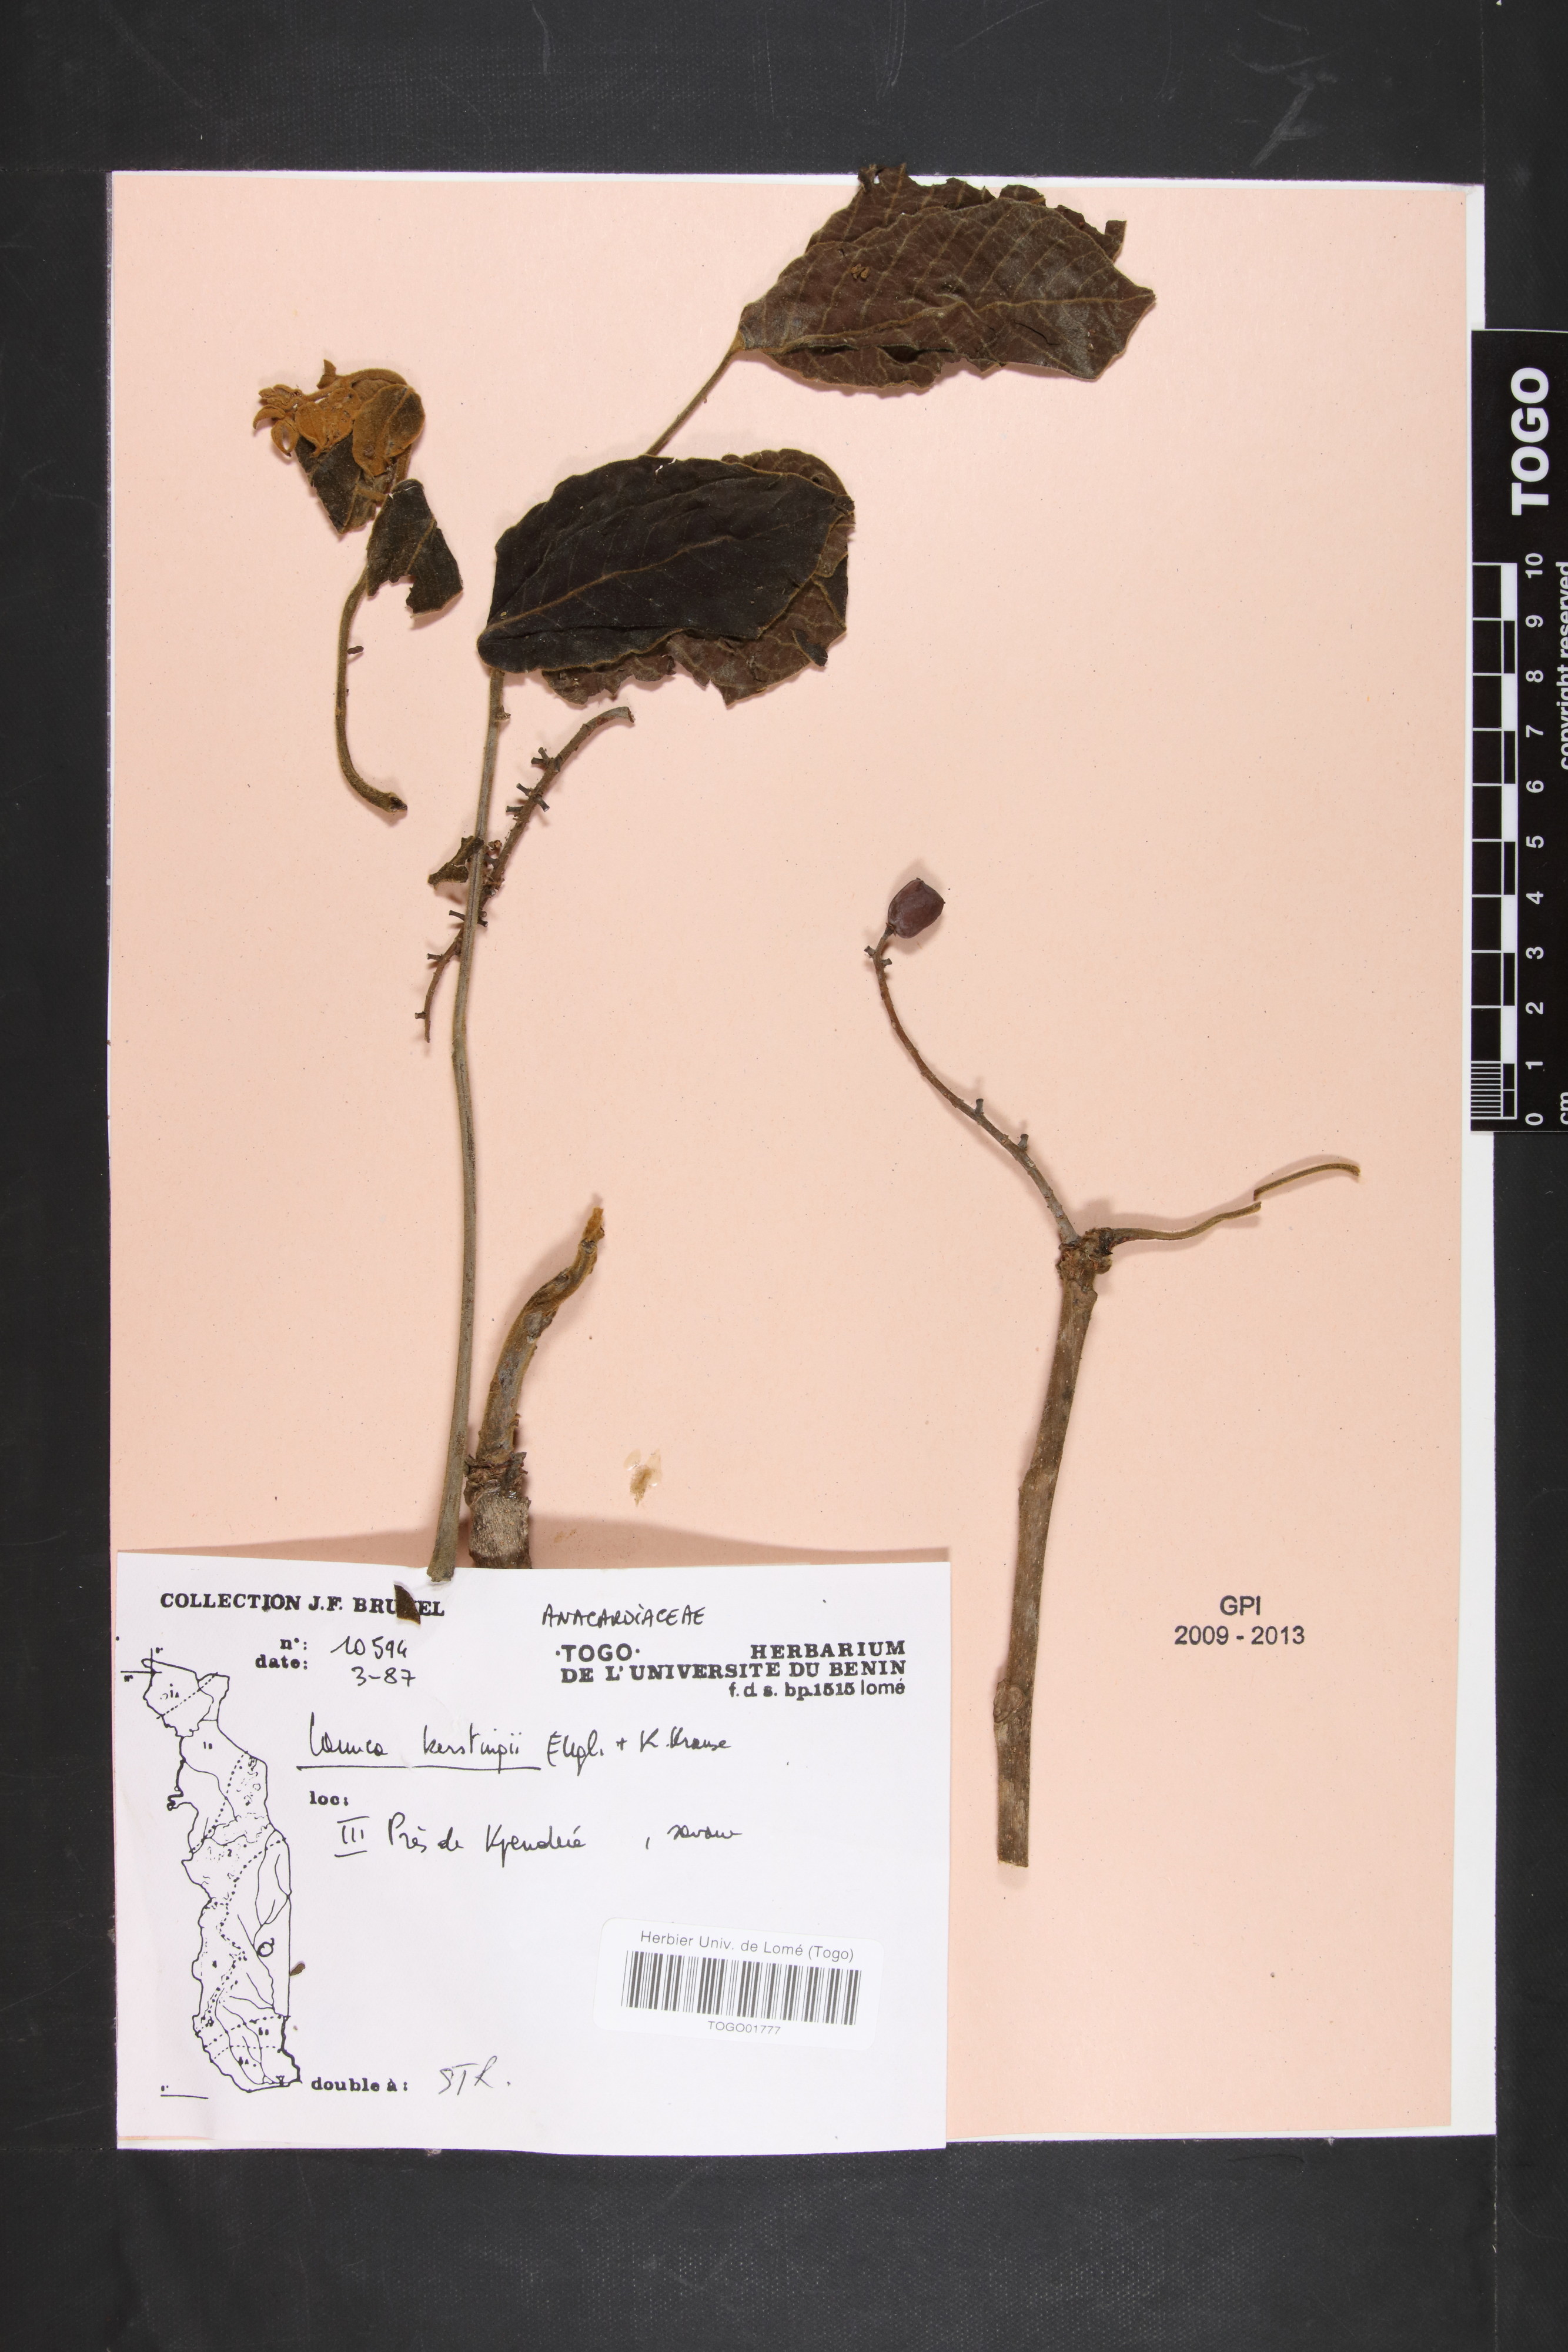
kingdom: Plantae
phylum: Tracheophyta
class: Magnoliopsida
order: Sapindales
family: Anacardiaceae
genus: Lannea
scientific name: Lannea barteri
